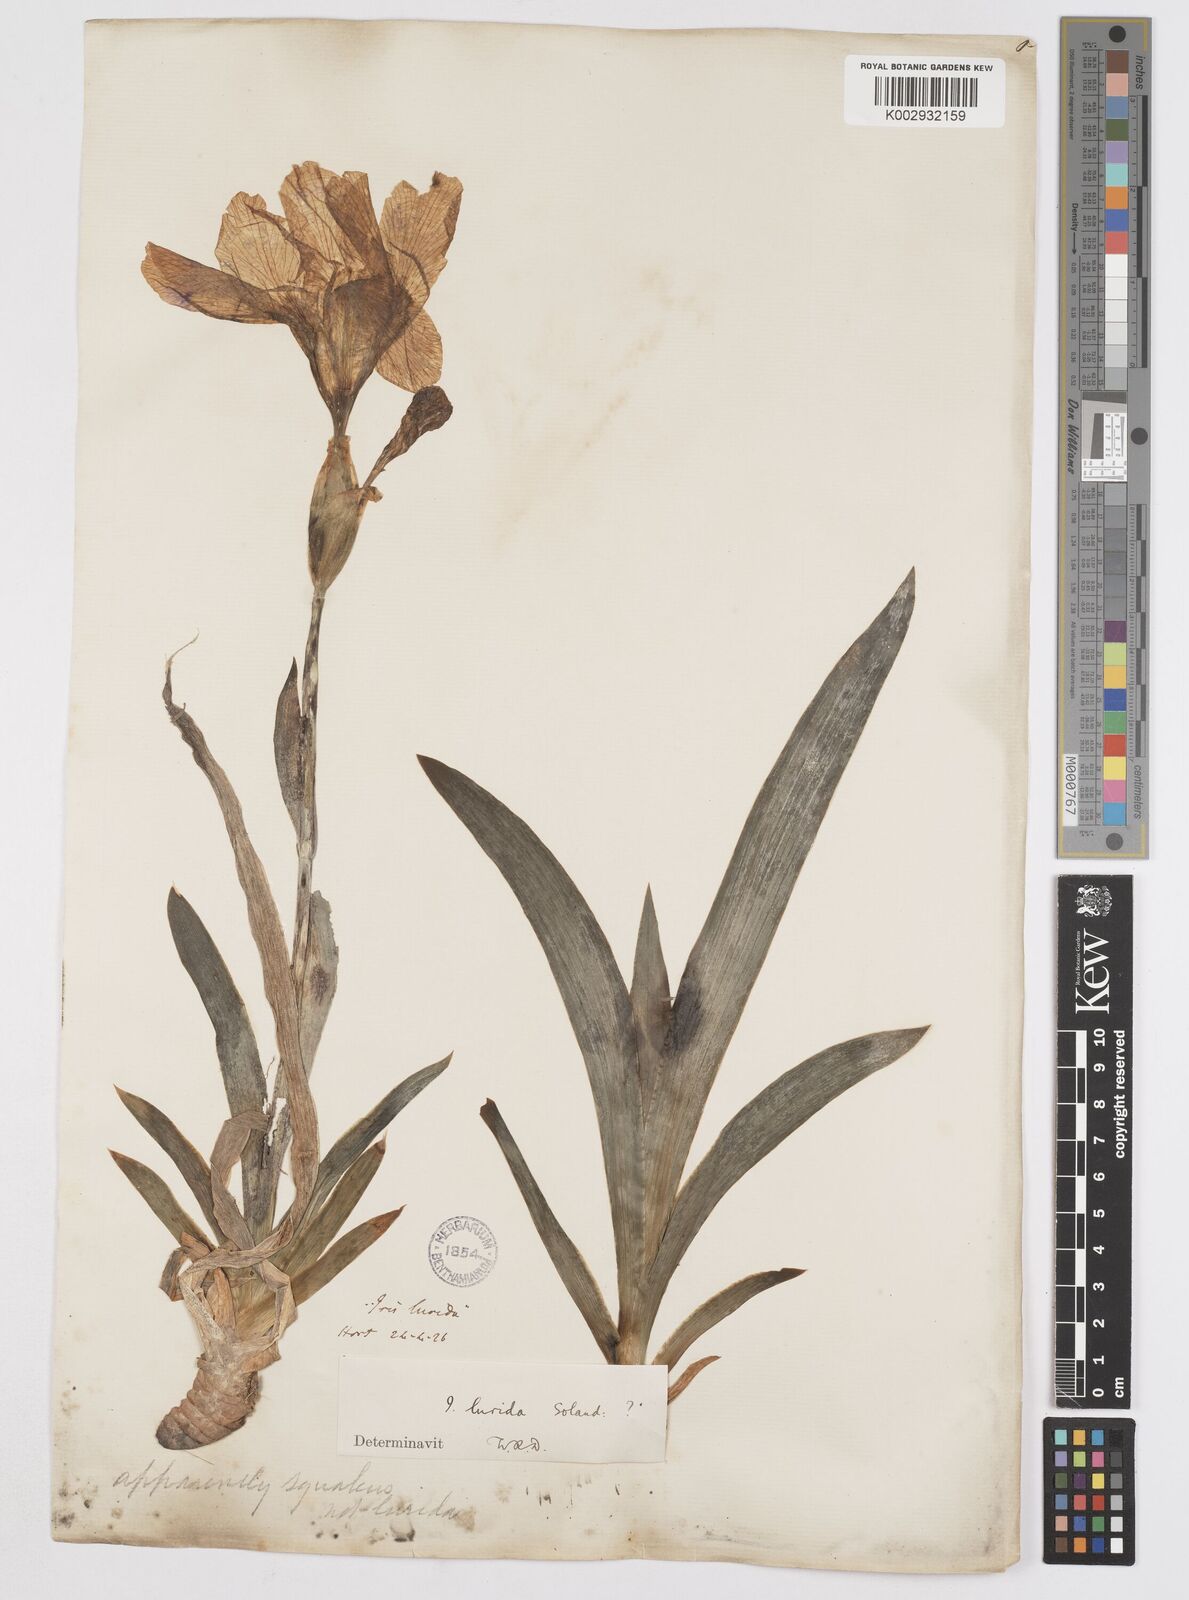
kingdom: Plantae
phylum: Tracheophyta
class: Liliopsida
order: Asparagales
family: Iridaceae
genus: Iris
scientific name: Iris sari
